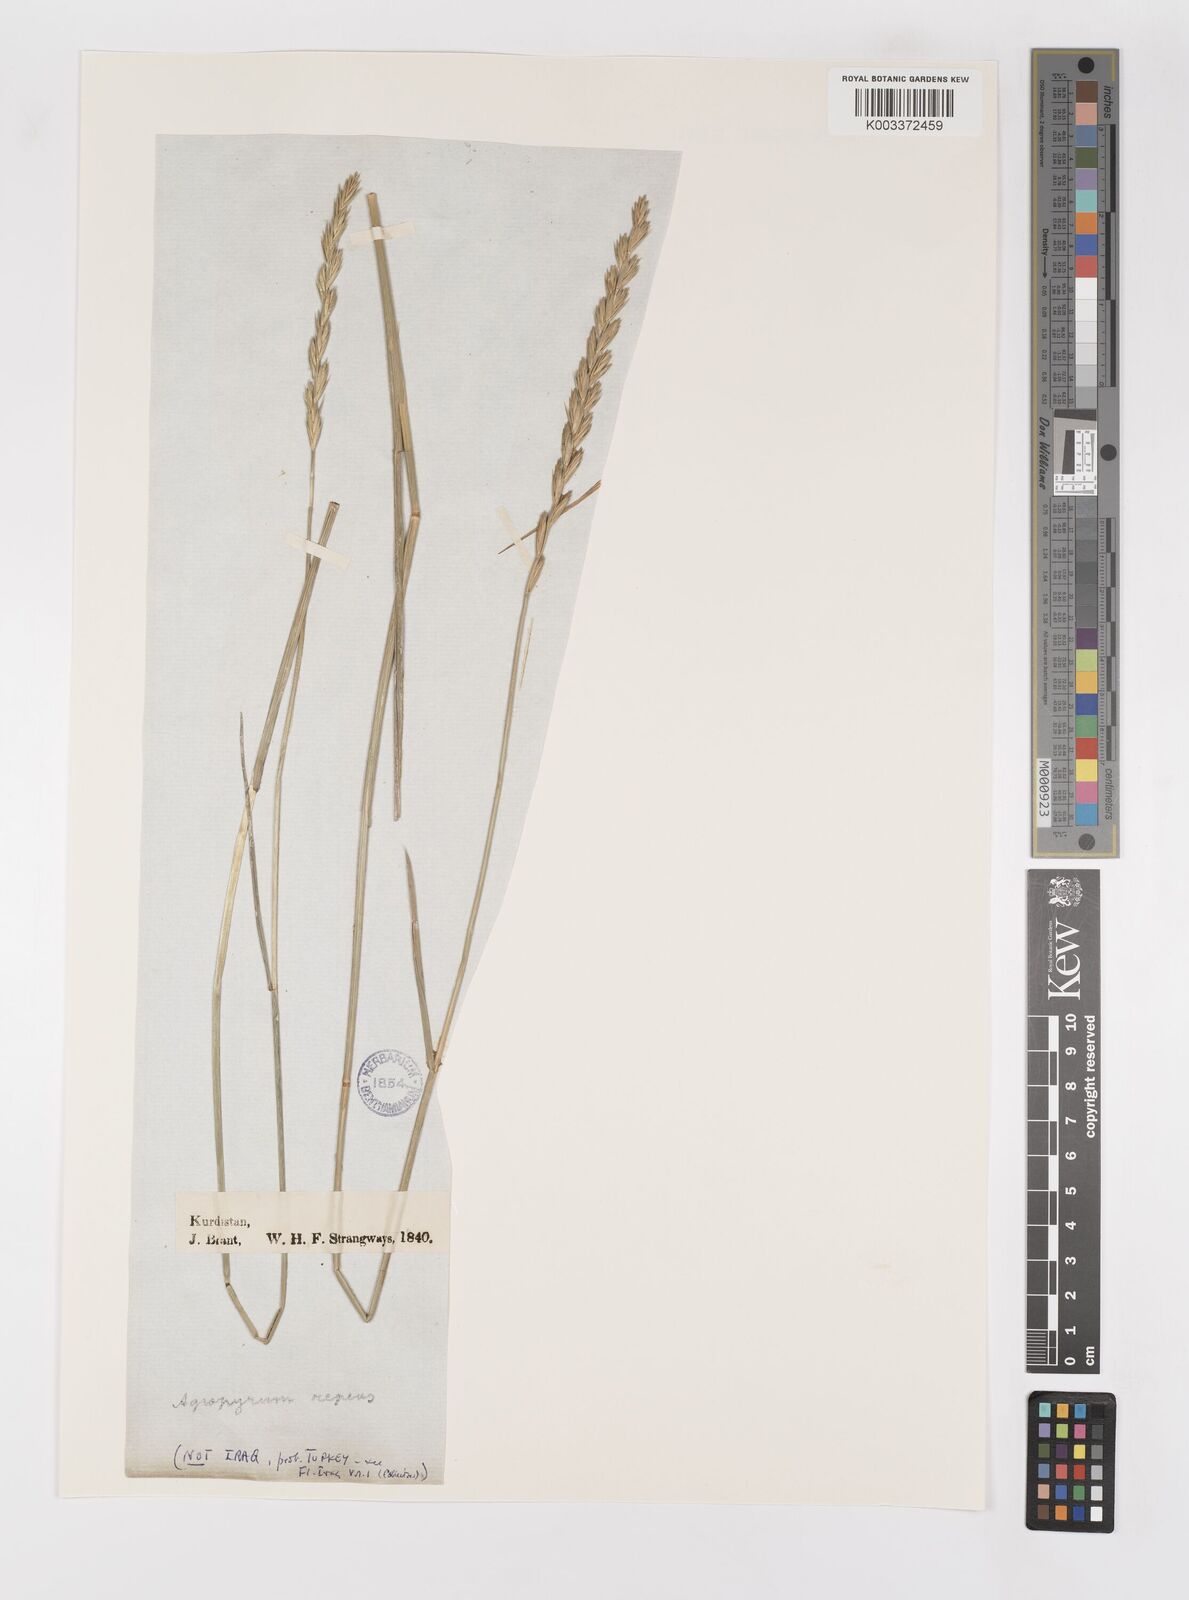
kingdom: Plantae
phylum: Tracheophyta
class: Liliopsida
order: Poales
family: Poaceae
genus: Elymus
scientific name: Elymus repens
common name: Quackgrass
